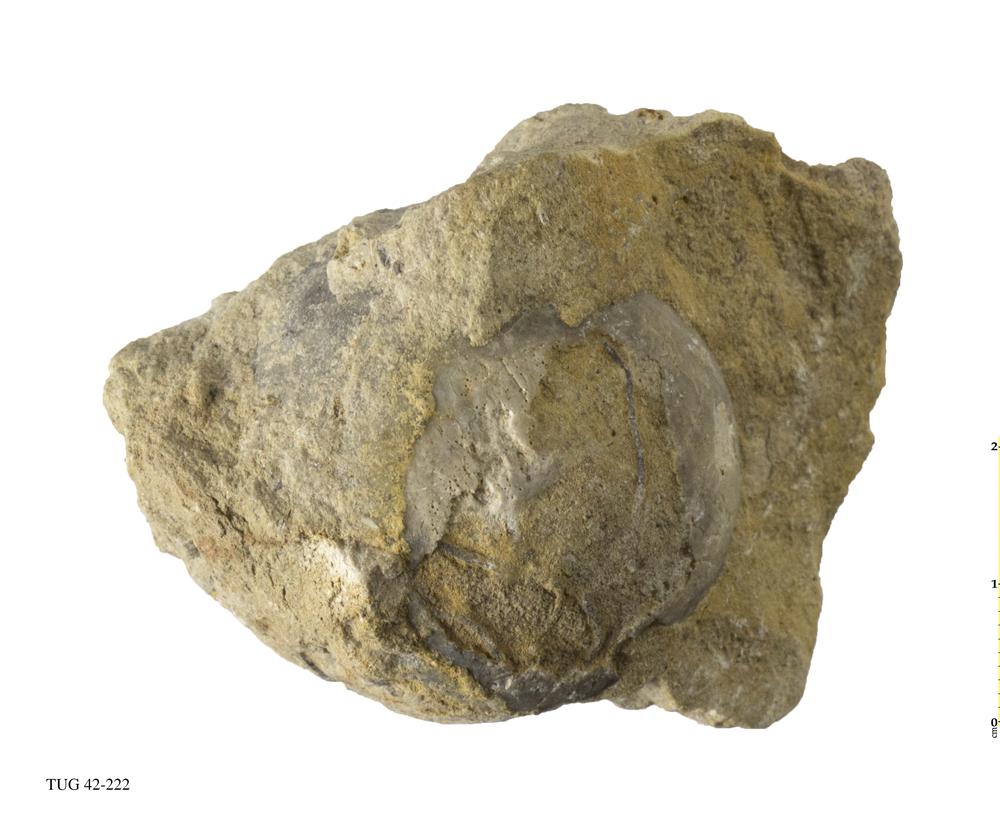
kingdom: Animalia
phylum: Echinodermata
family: Sphaeronitidae
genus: Sphaeronites
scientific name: Sphaeronites
